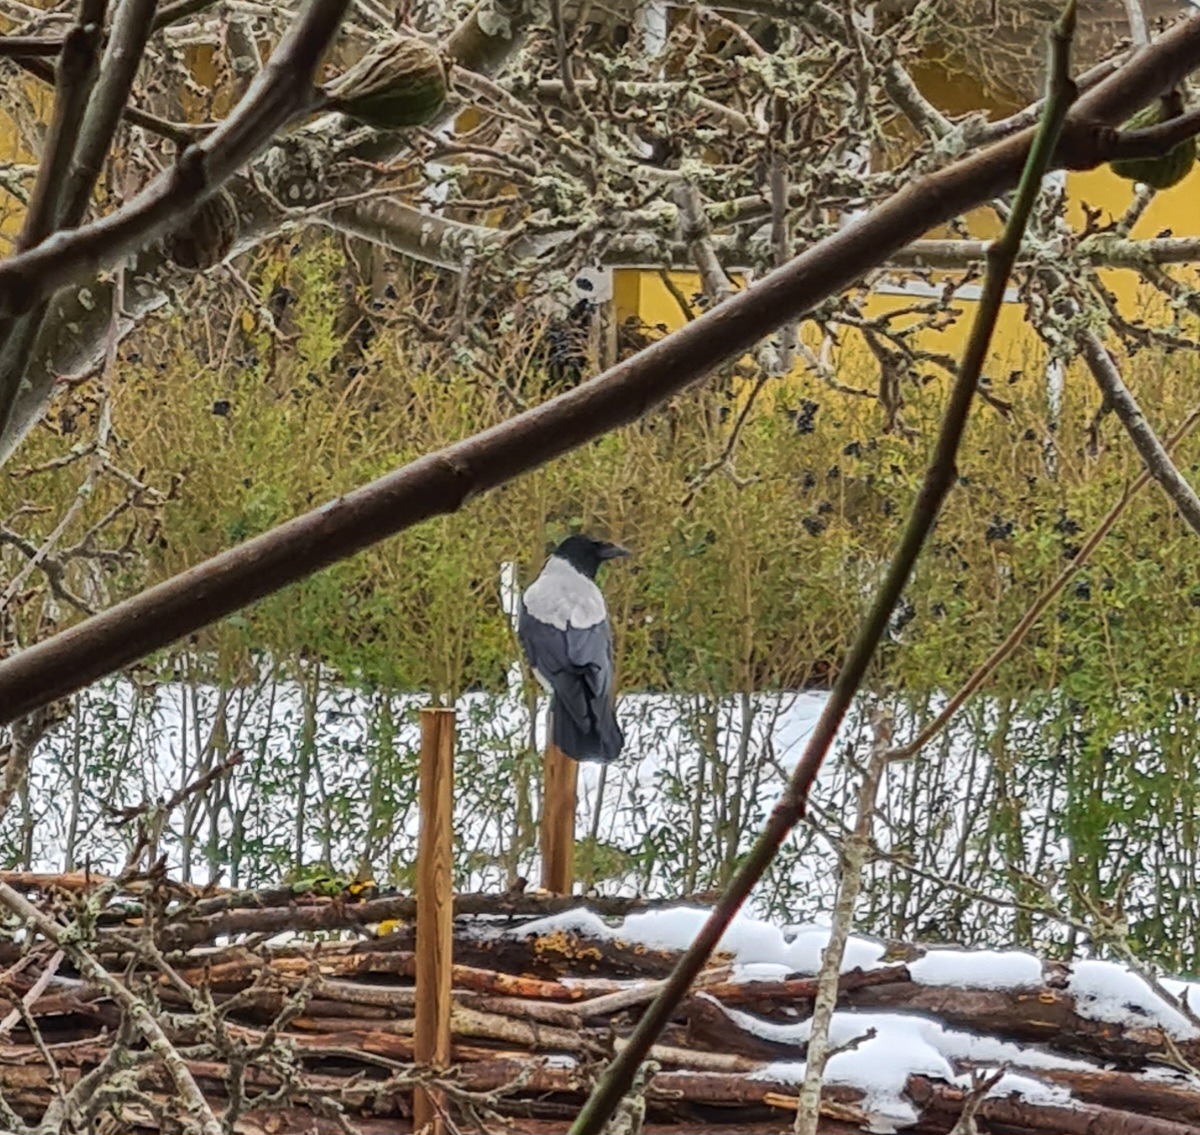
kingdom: Animalia
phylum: Chordata
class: Aves
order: Passeriformes
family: Corvidae
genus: Corvus
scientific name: Corvus cornix
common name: Gråkrage
